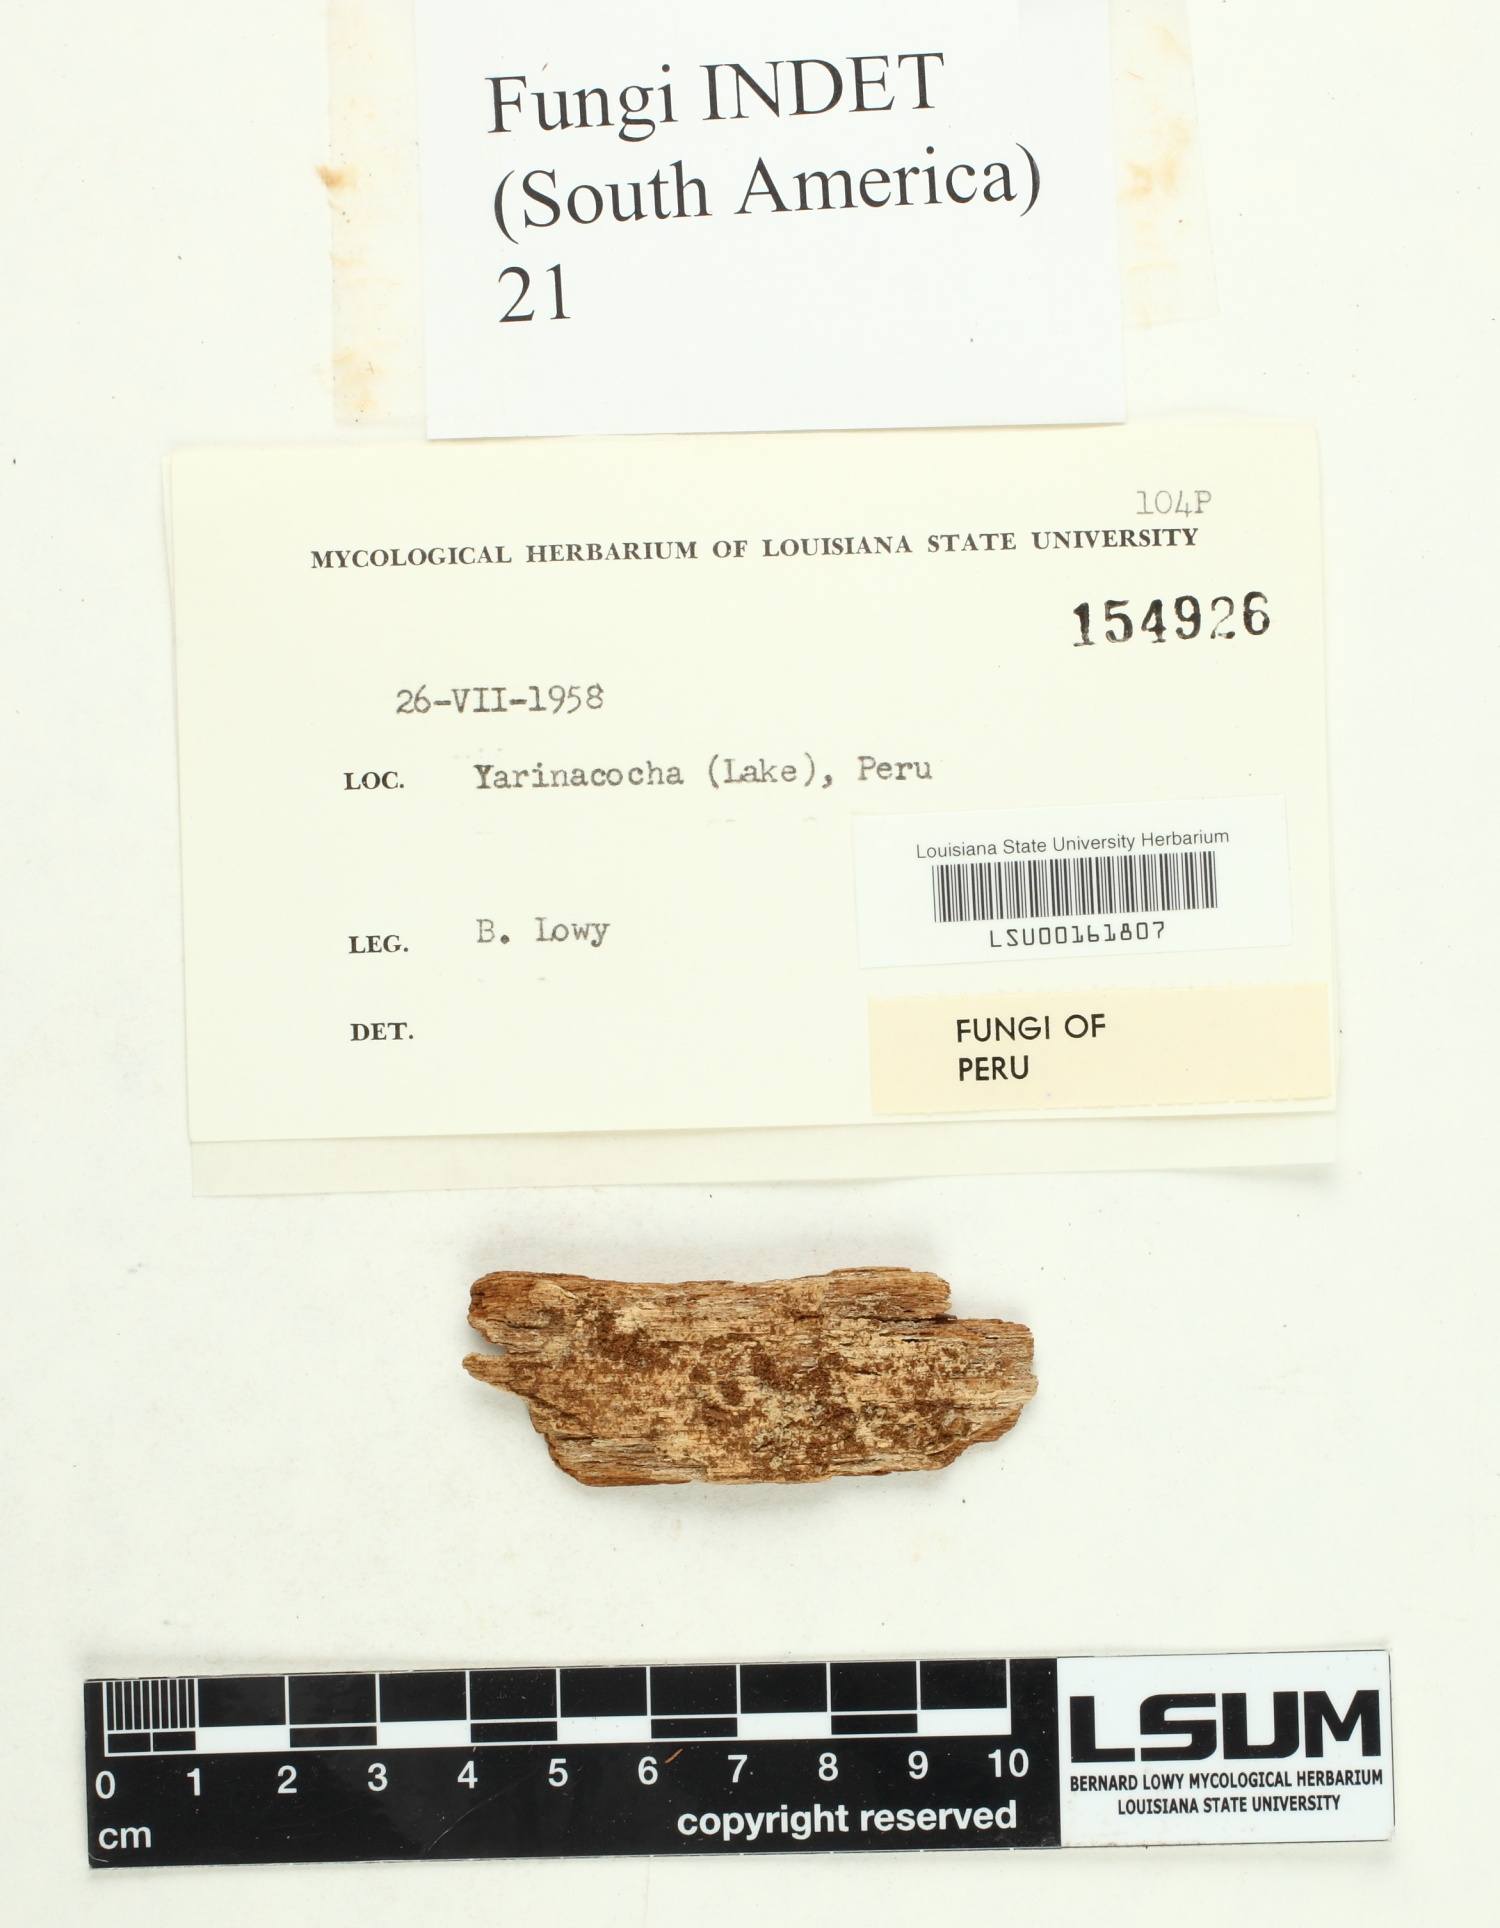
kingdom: Fungi
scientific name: Fungi
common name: Fungi
